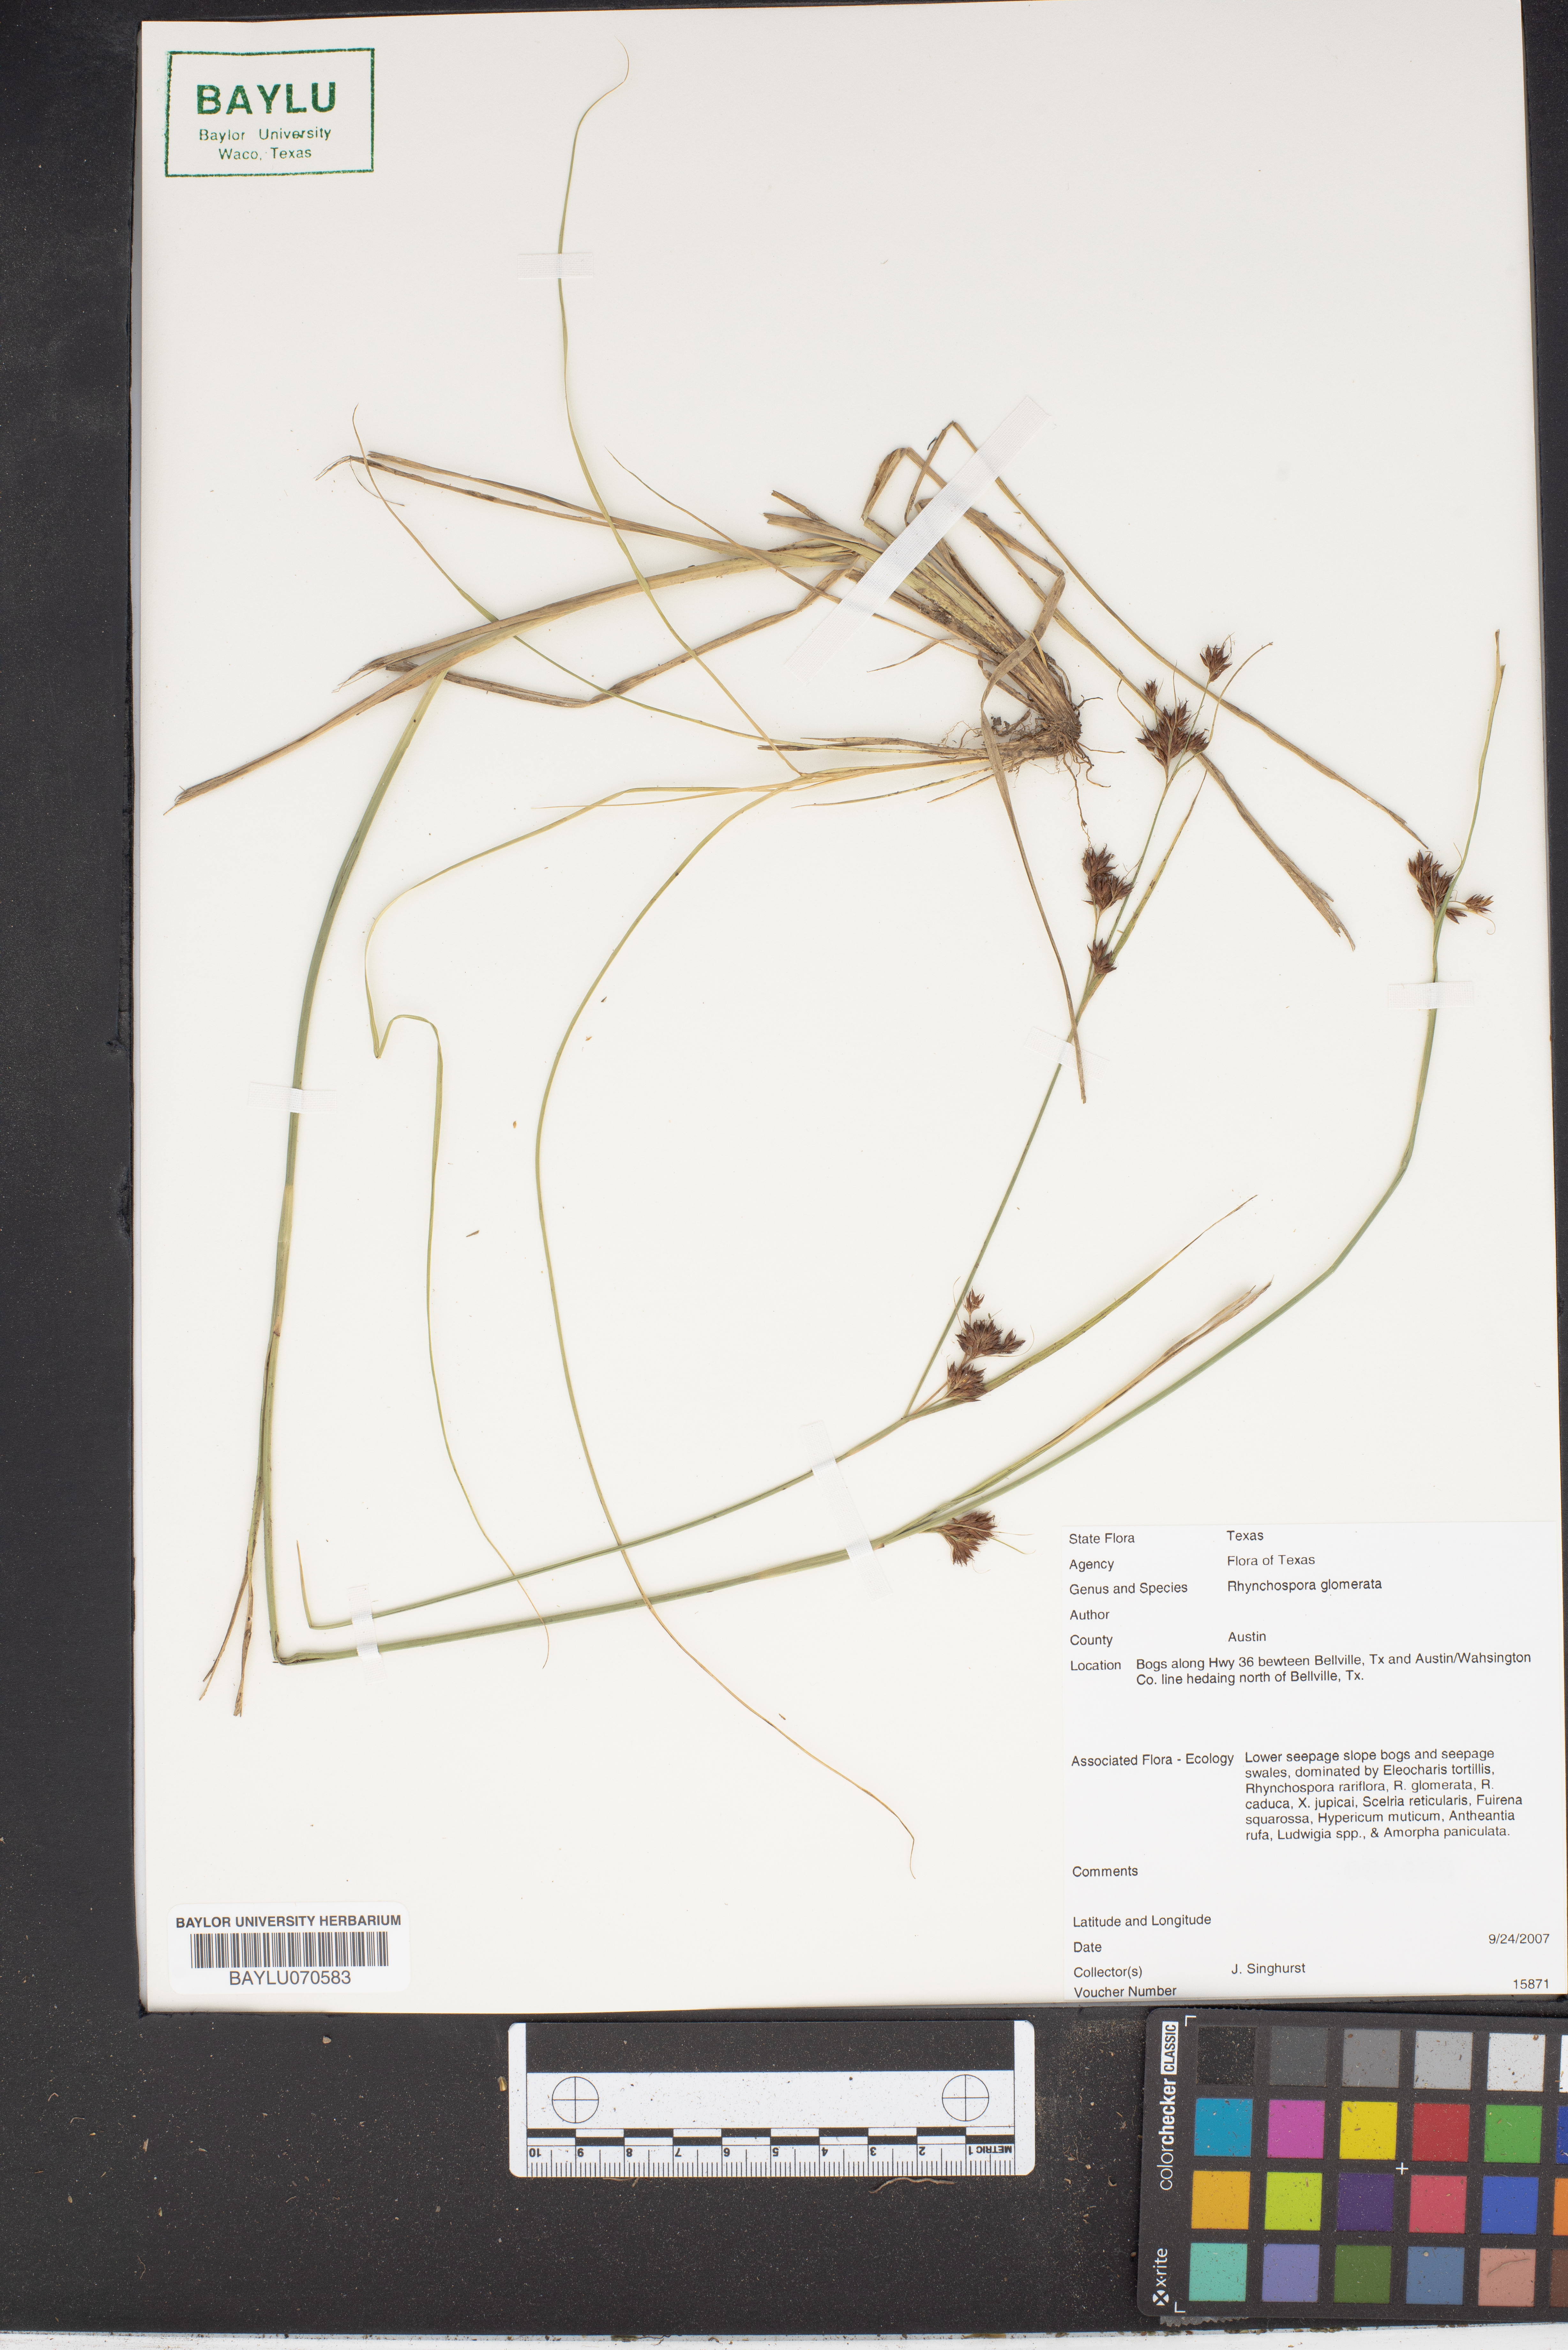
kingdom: Plantae
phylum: Tracheophyta
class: Liliopsida
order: Poales
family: Cyperaceae
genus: Rhynchospora
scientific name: Rhynchospora glomerata
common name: Cluster beak sedge
